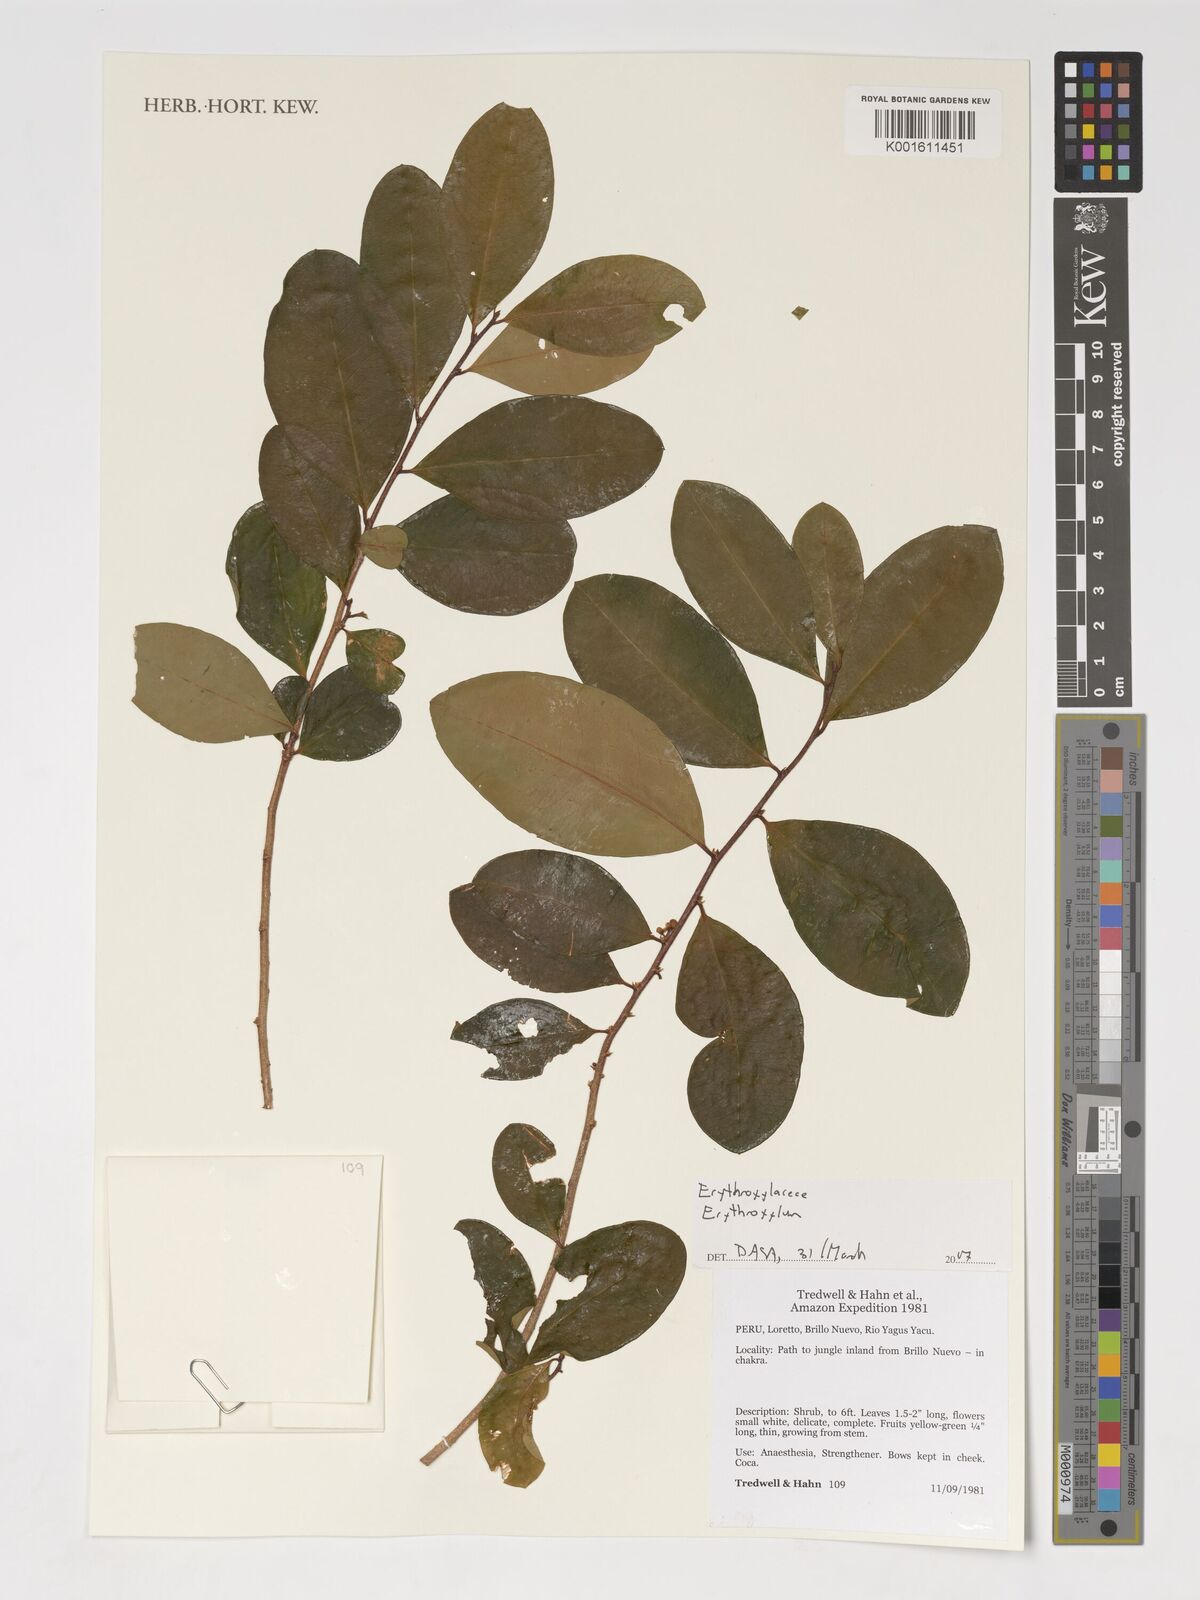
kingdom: Plantae
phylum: Tracheophyta
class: Magnoliopsida
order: Malpighiales
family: Erythroxylaceae
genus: Erythroxylum
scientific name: Erythroxylum
